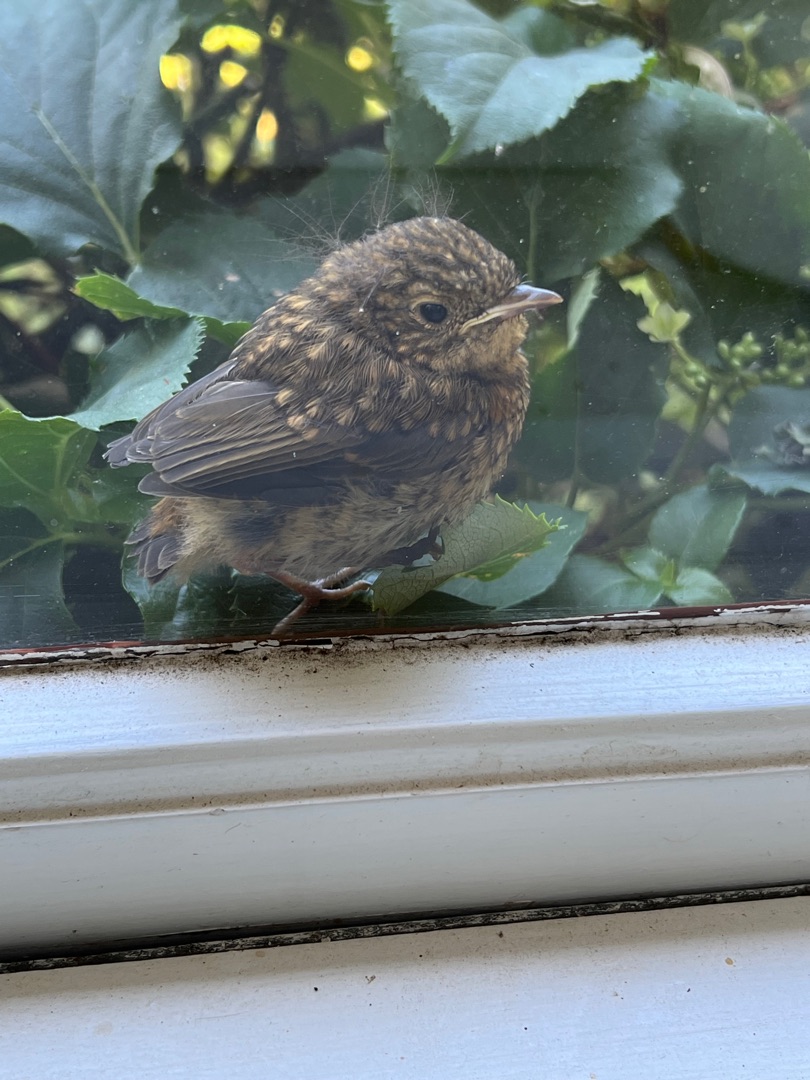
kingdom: Animalia
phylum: Chordata
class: Aves
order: Passeriformes
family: Muscicapidae
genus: Erithacus
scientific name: Erithacus rubecula
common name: Rødhals/rødkælk
